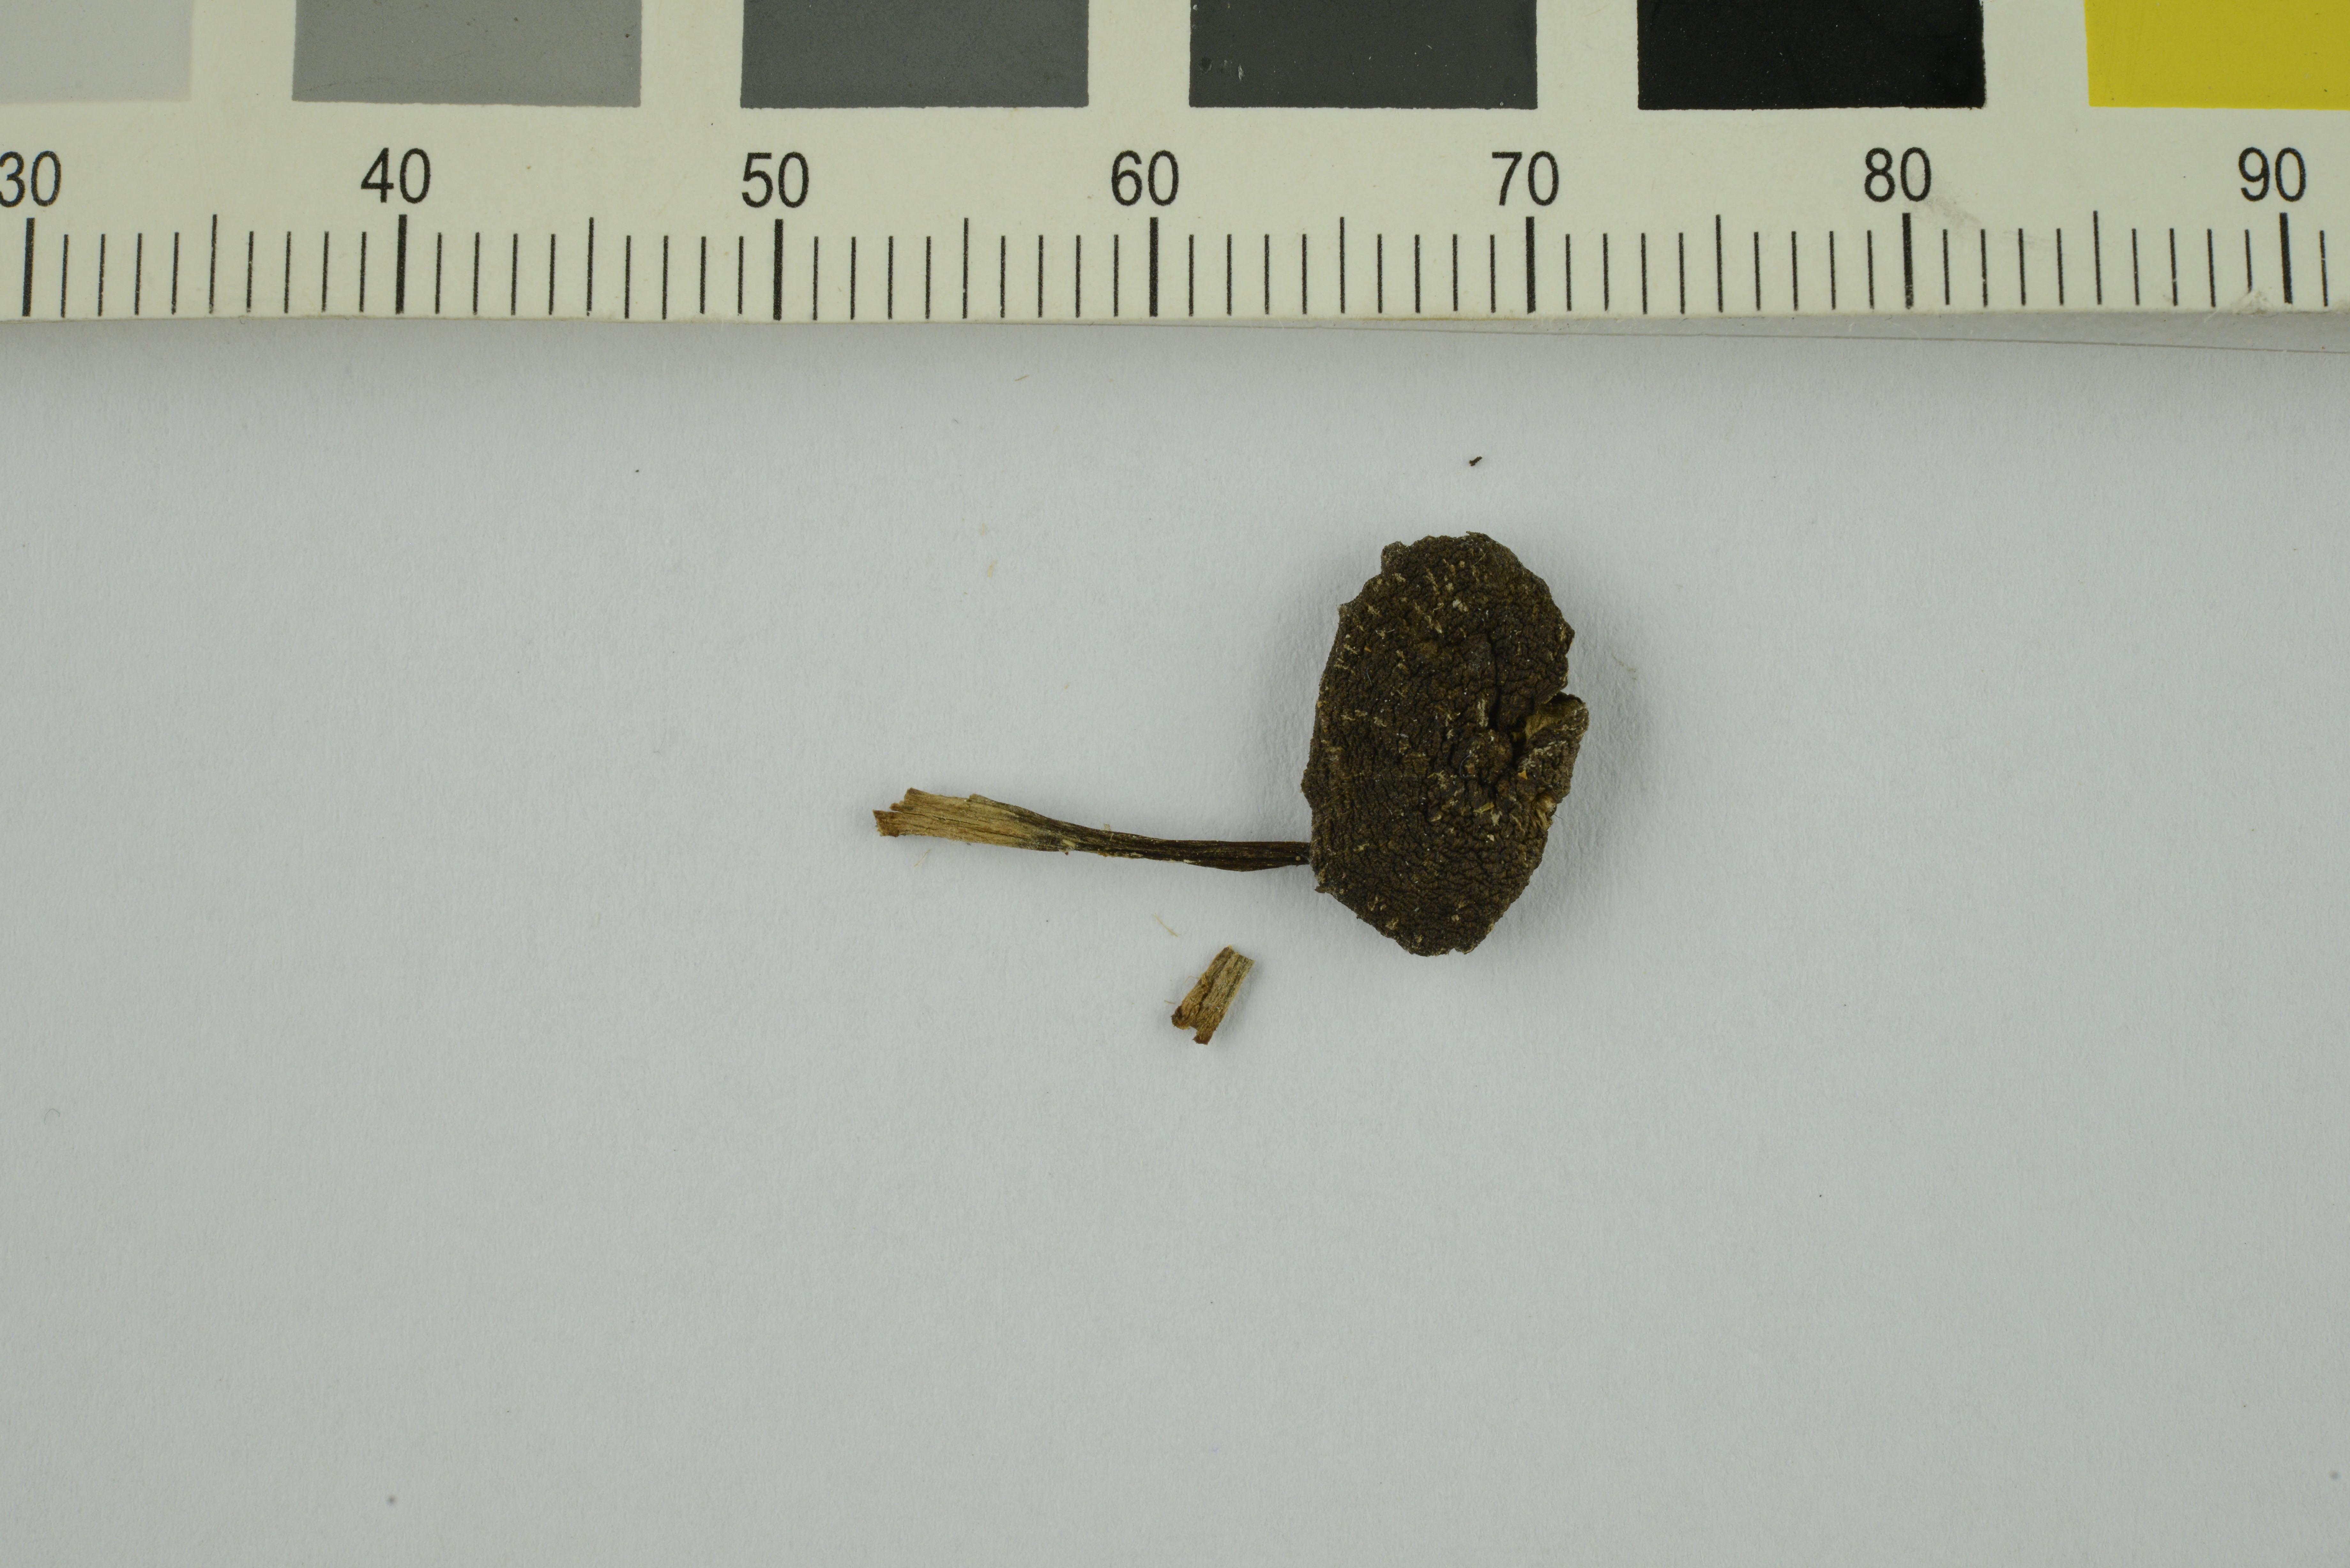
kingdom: Fungi
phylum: Basidiomycota
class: Agaricomycetes
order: Agaricales
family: Entolomataceae
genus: Entoloma
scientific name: Entoloma
